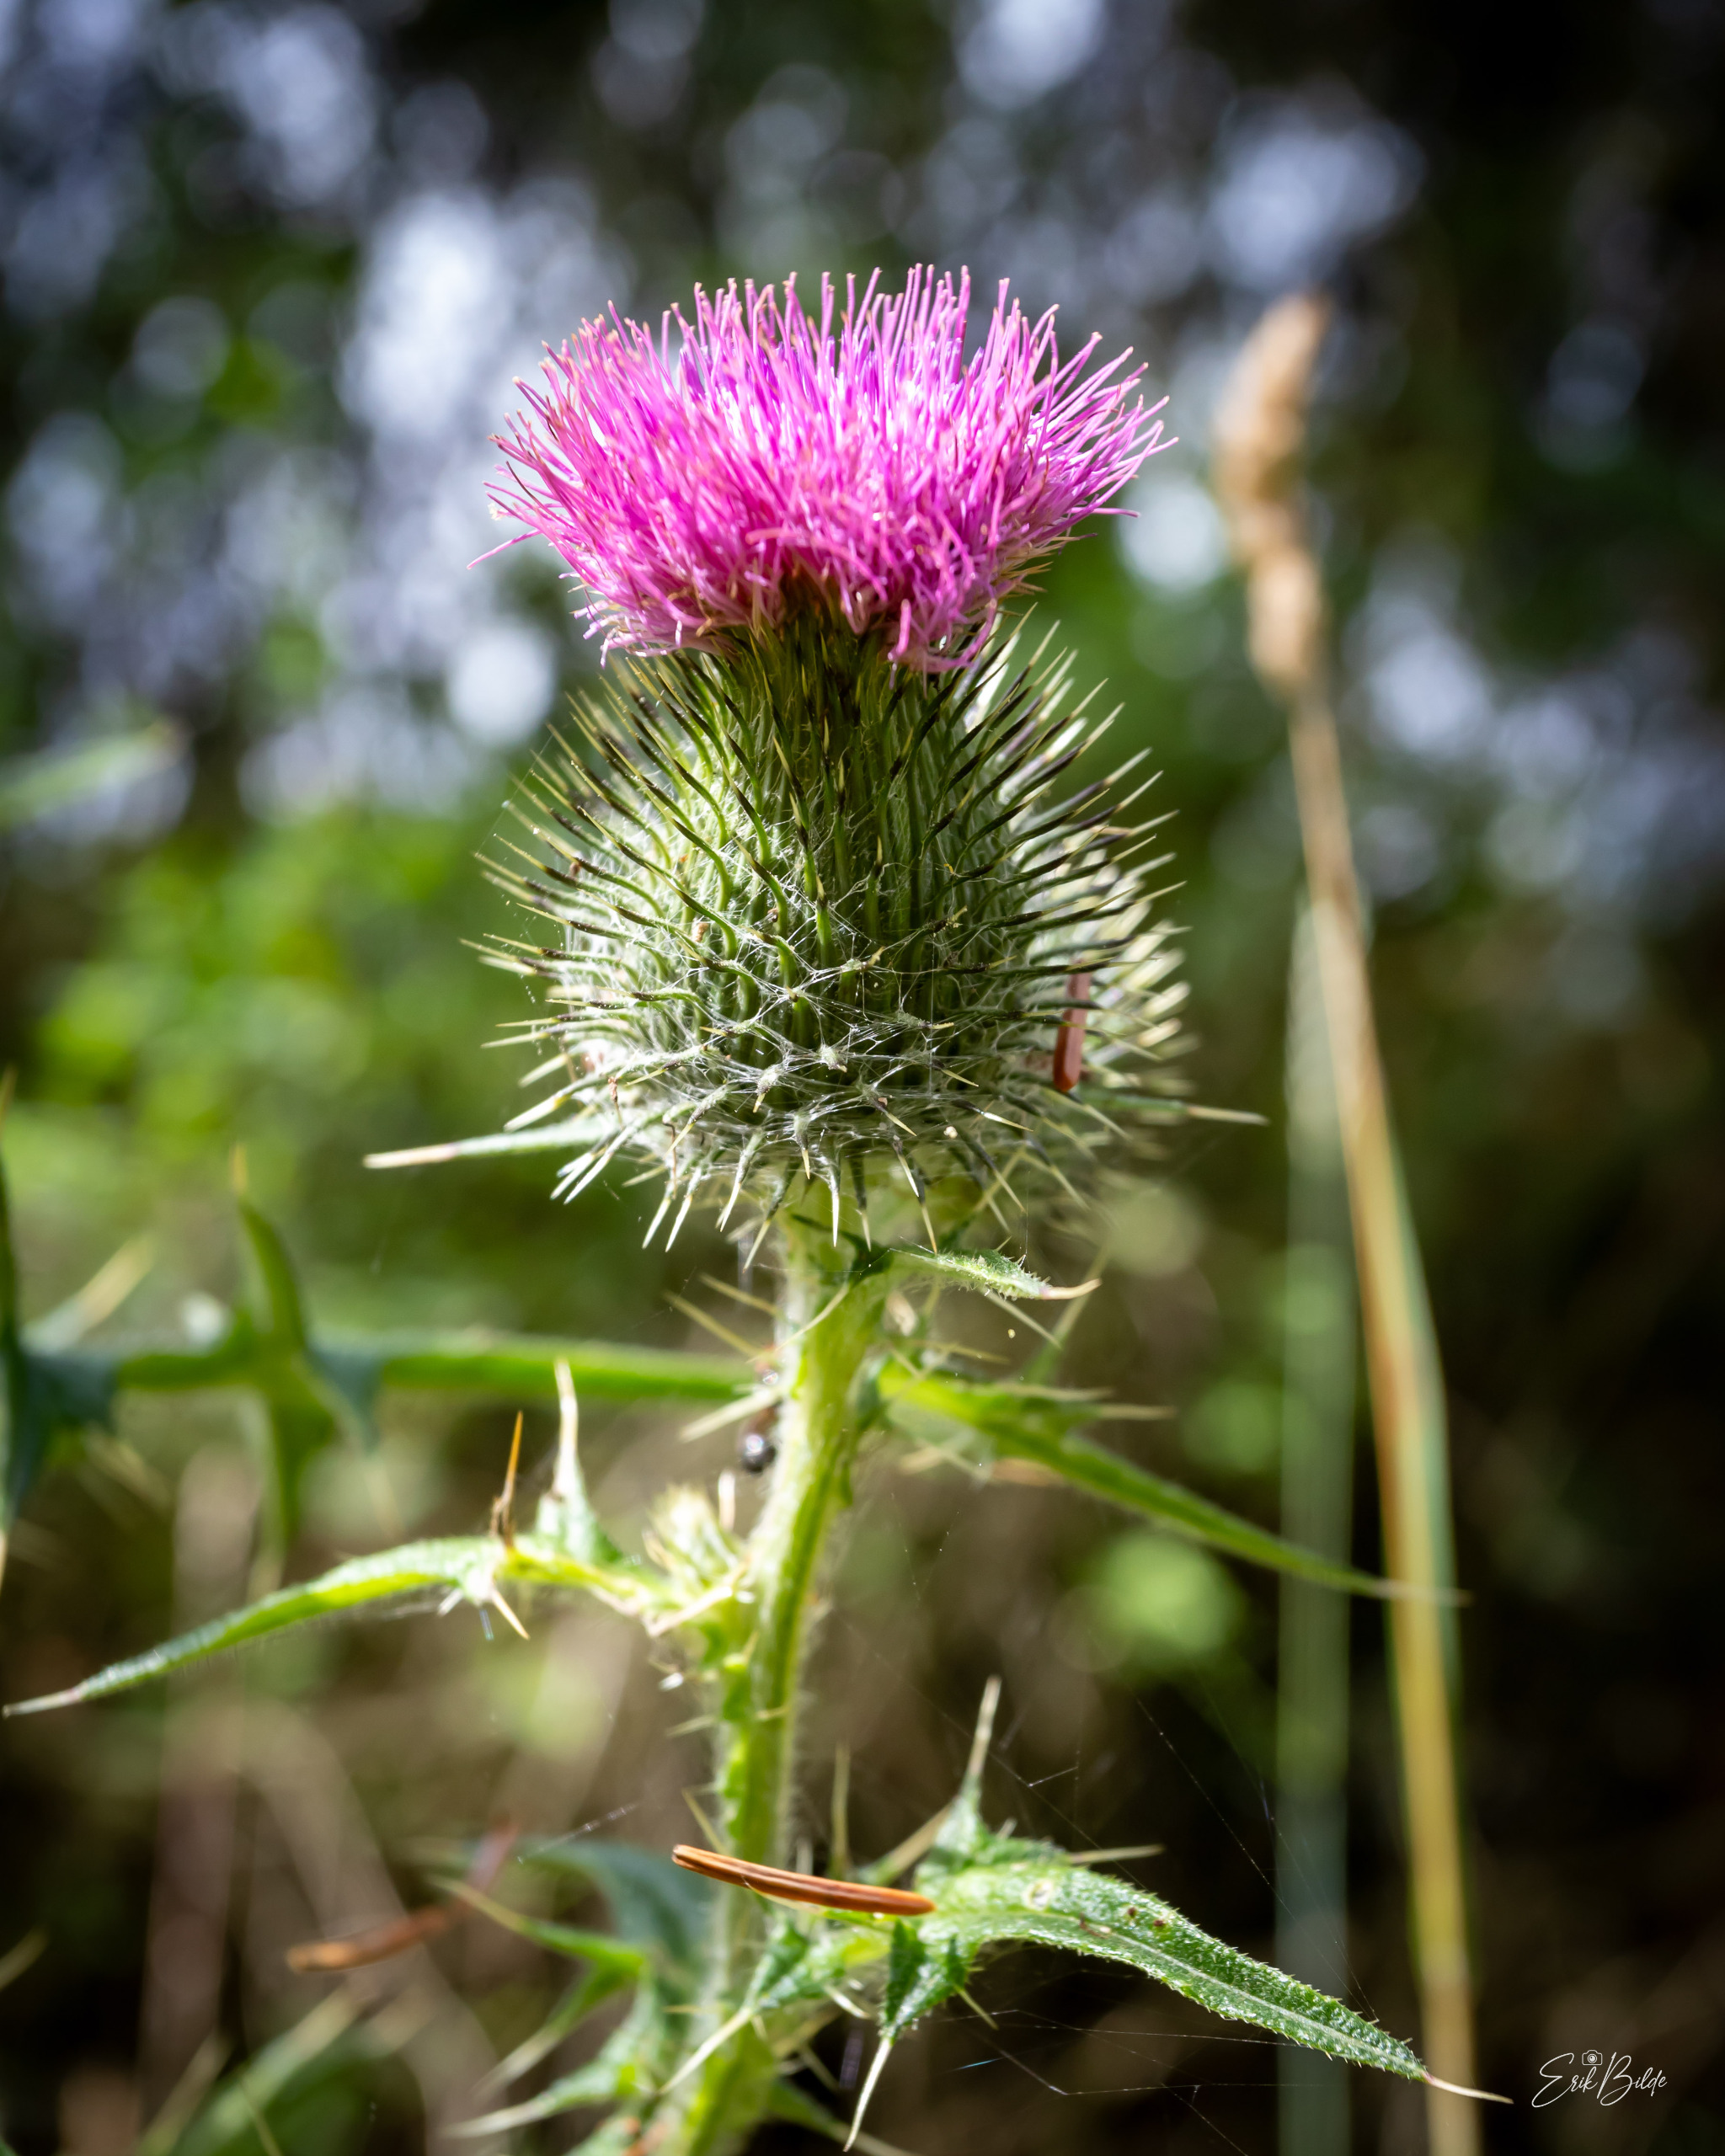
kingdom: Plantae
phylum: Tracheophyta
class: Magnoliopsida
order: Asterales
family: Asteraceae
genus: Cirsium
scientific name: Cirsium vulgare
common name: Horse-tidsel
